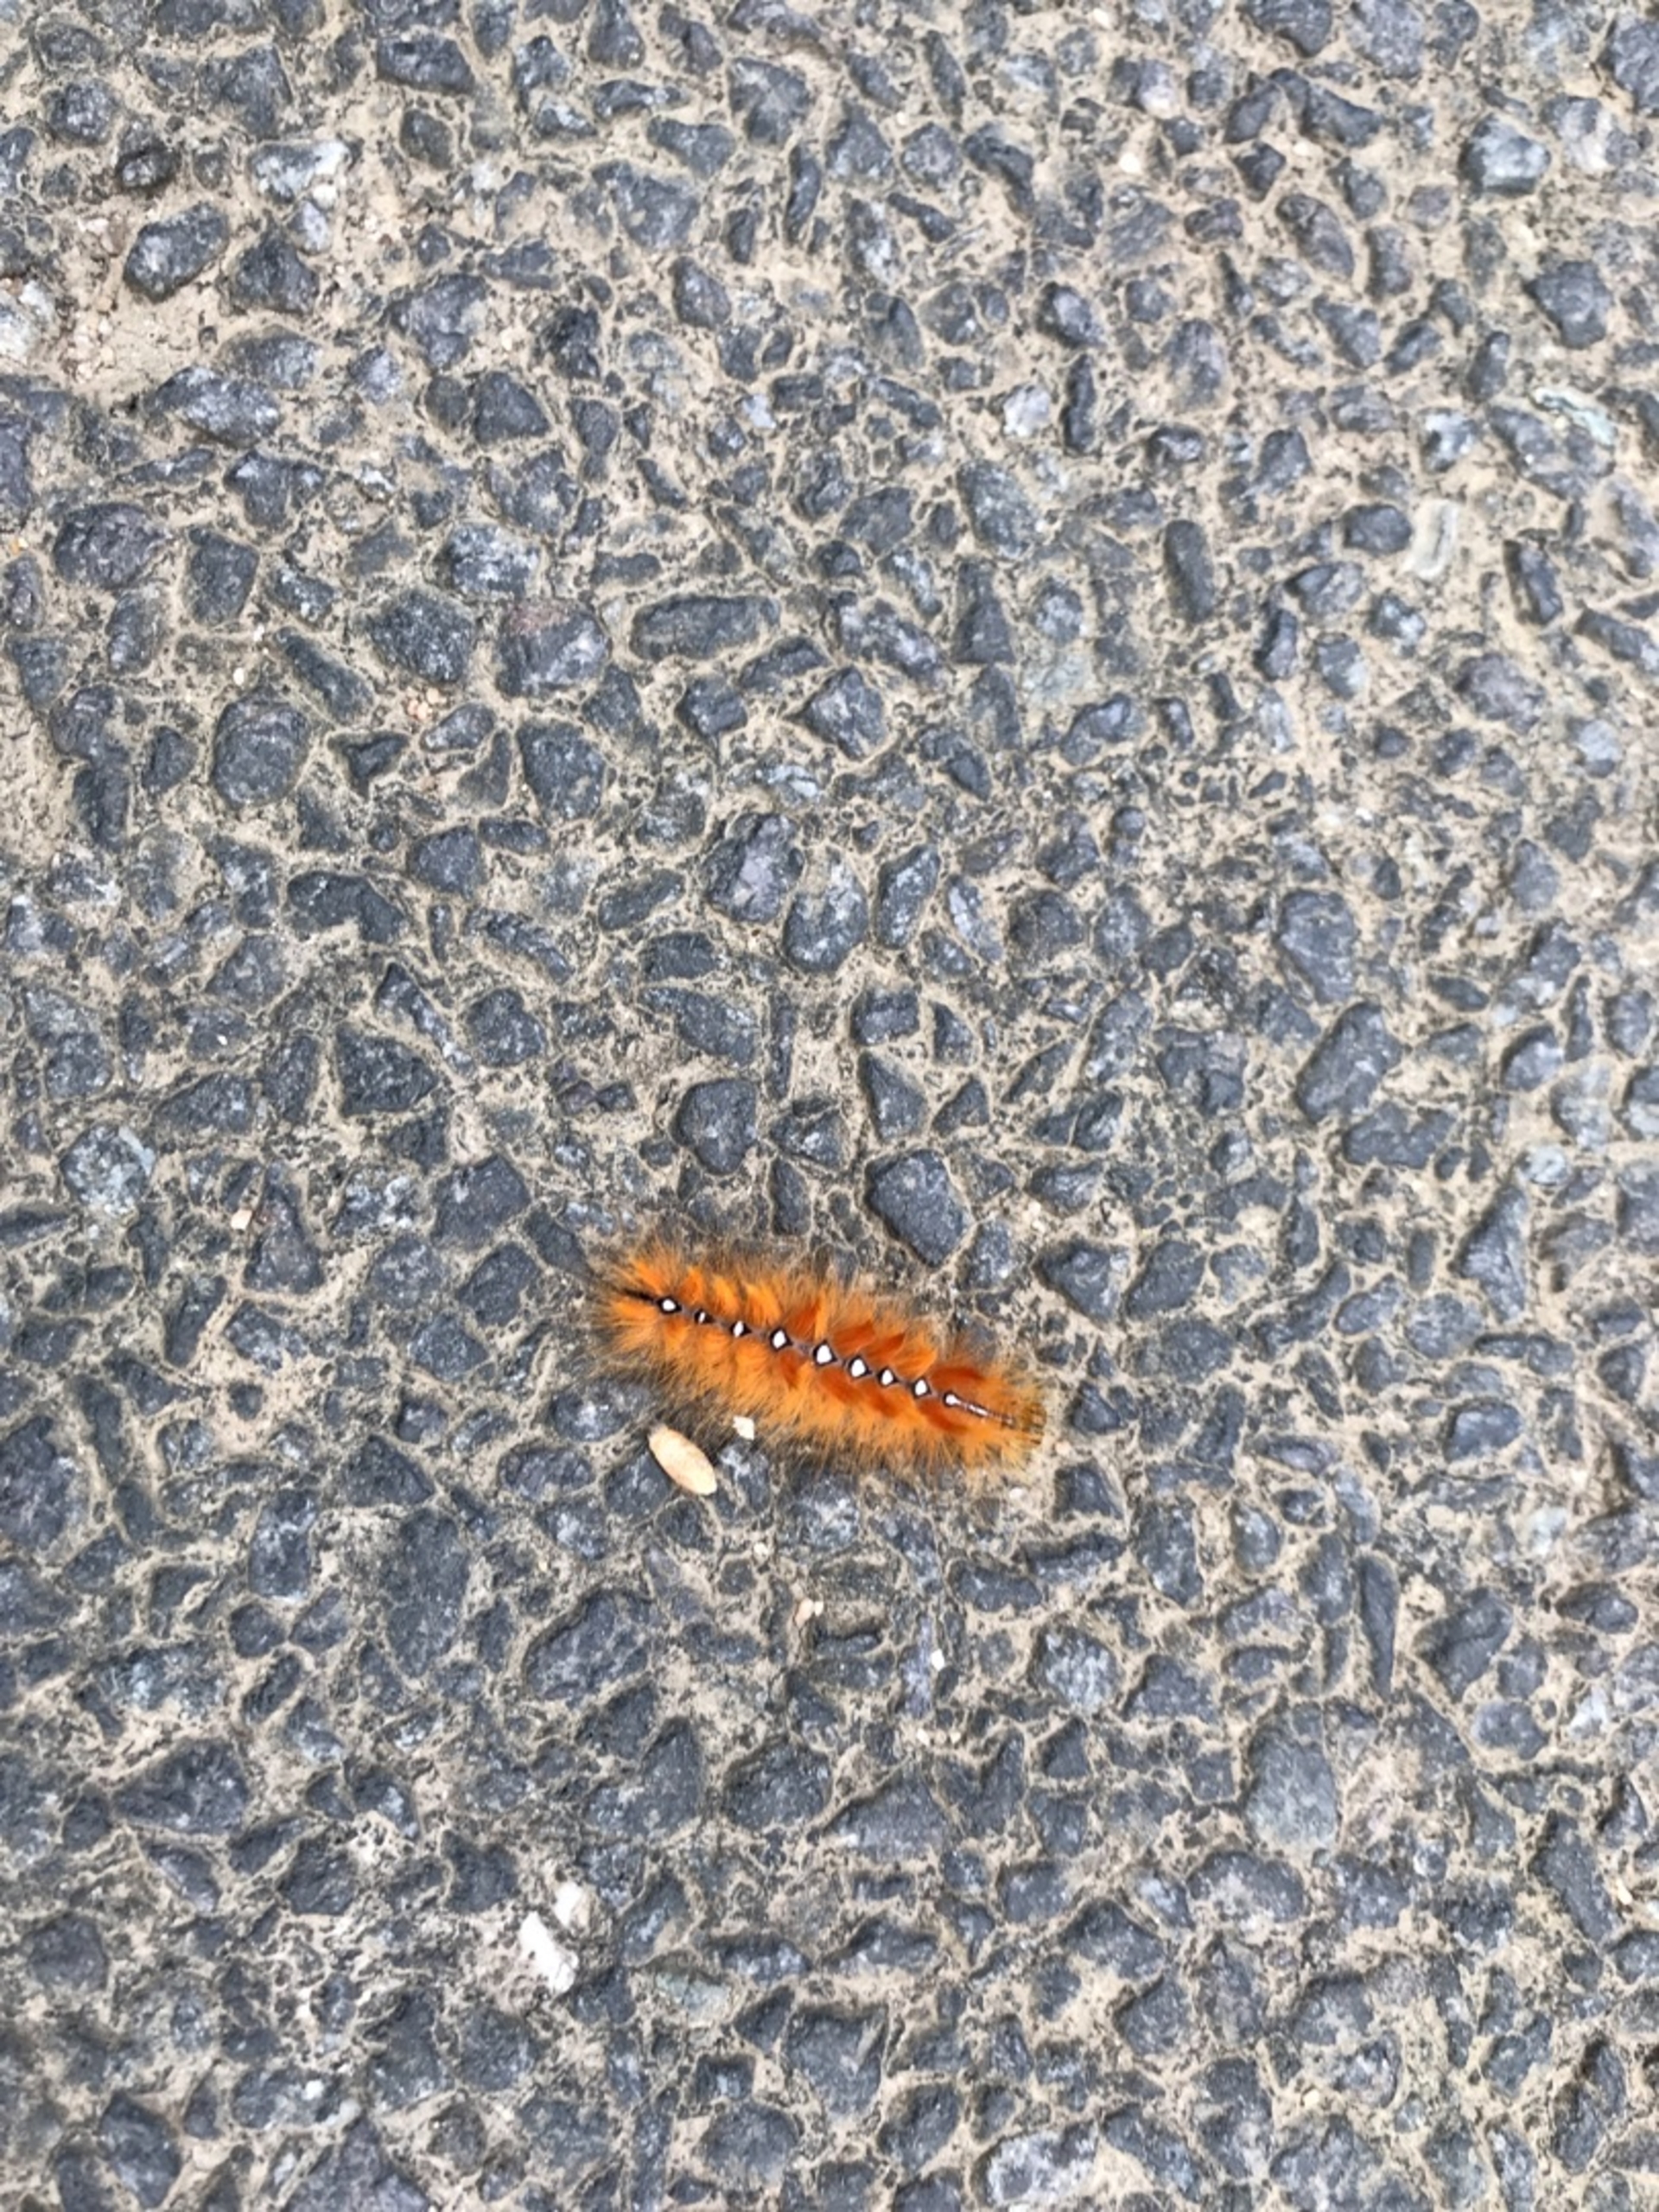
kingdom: Animalia
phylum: Arthropoda
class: Insecta
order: Lepidoptera
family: Noctuidae
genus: Acronicta
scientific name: Acronicta aceris
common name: Ahornugle
